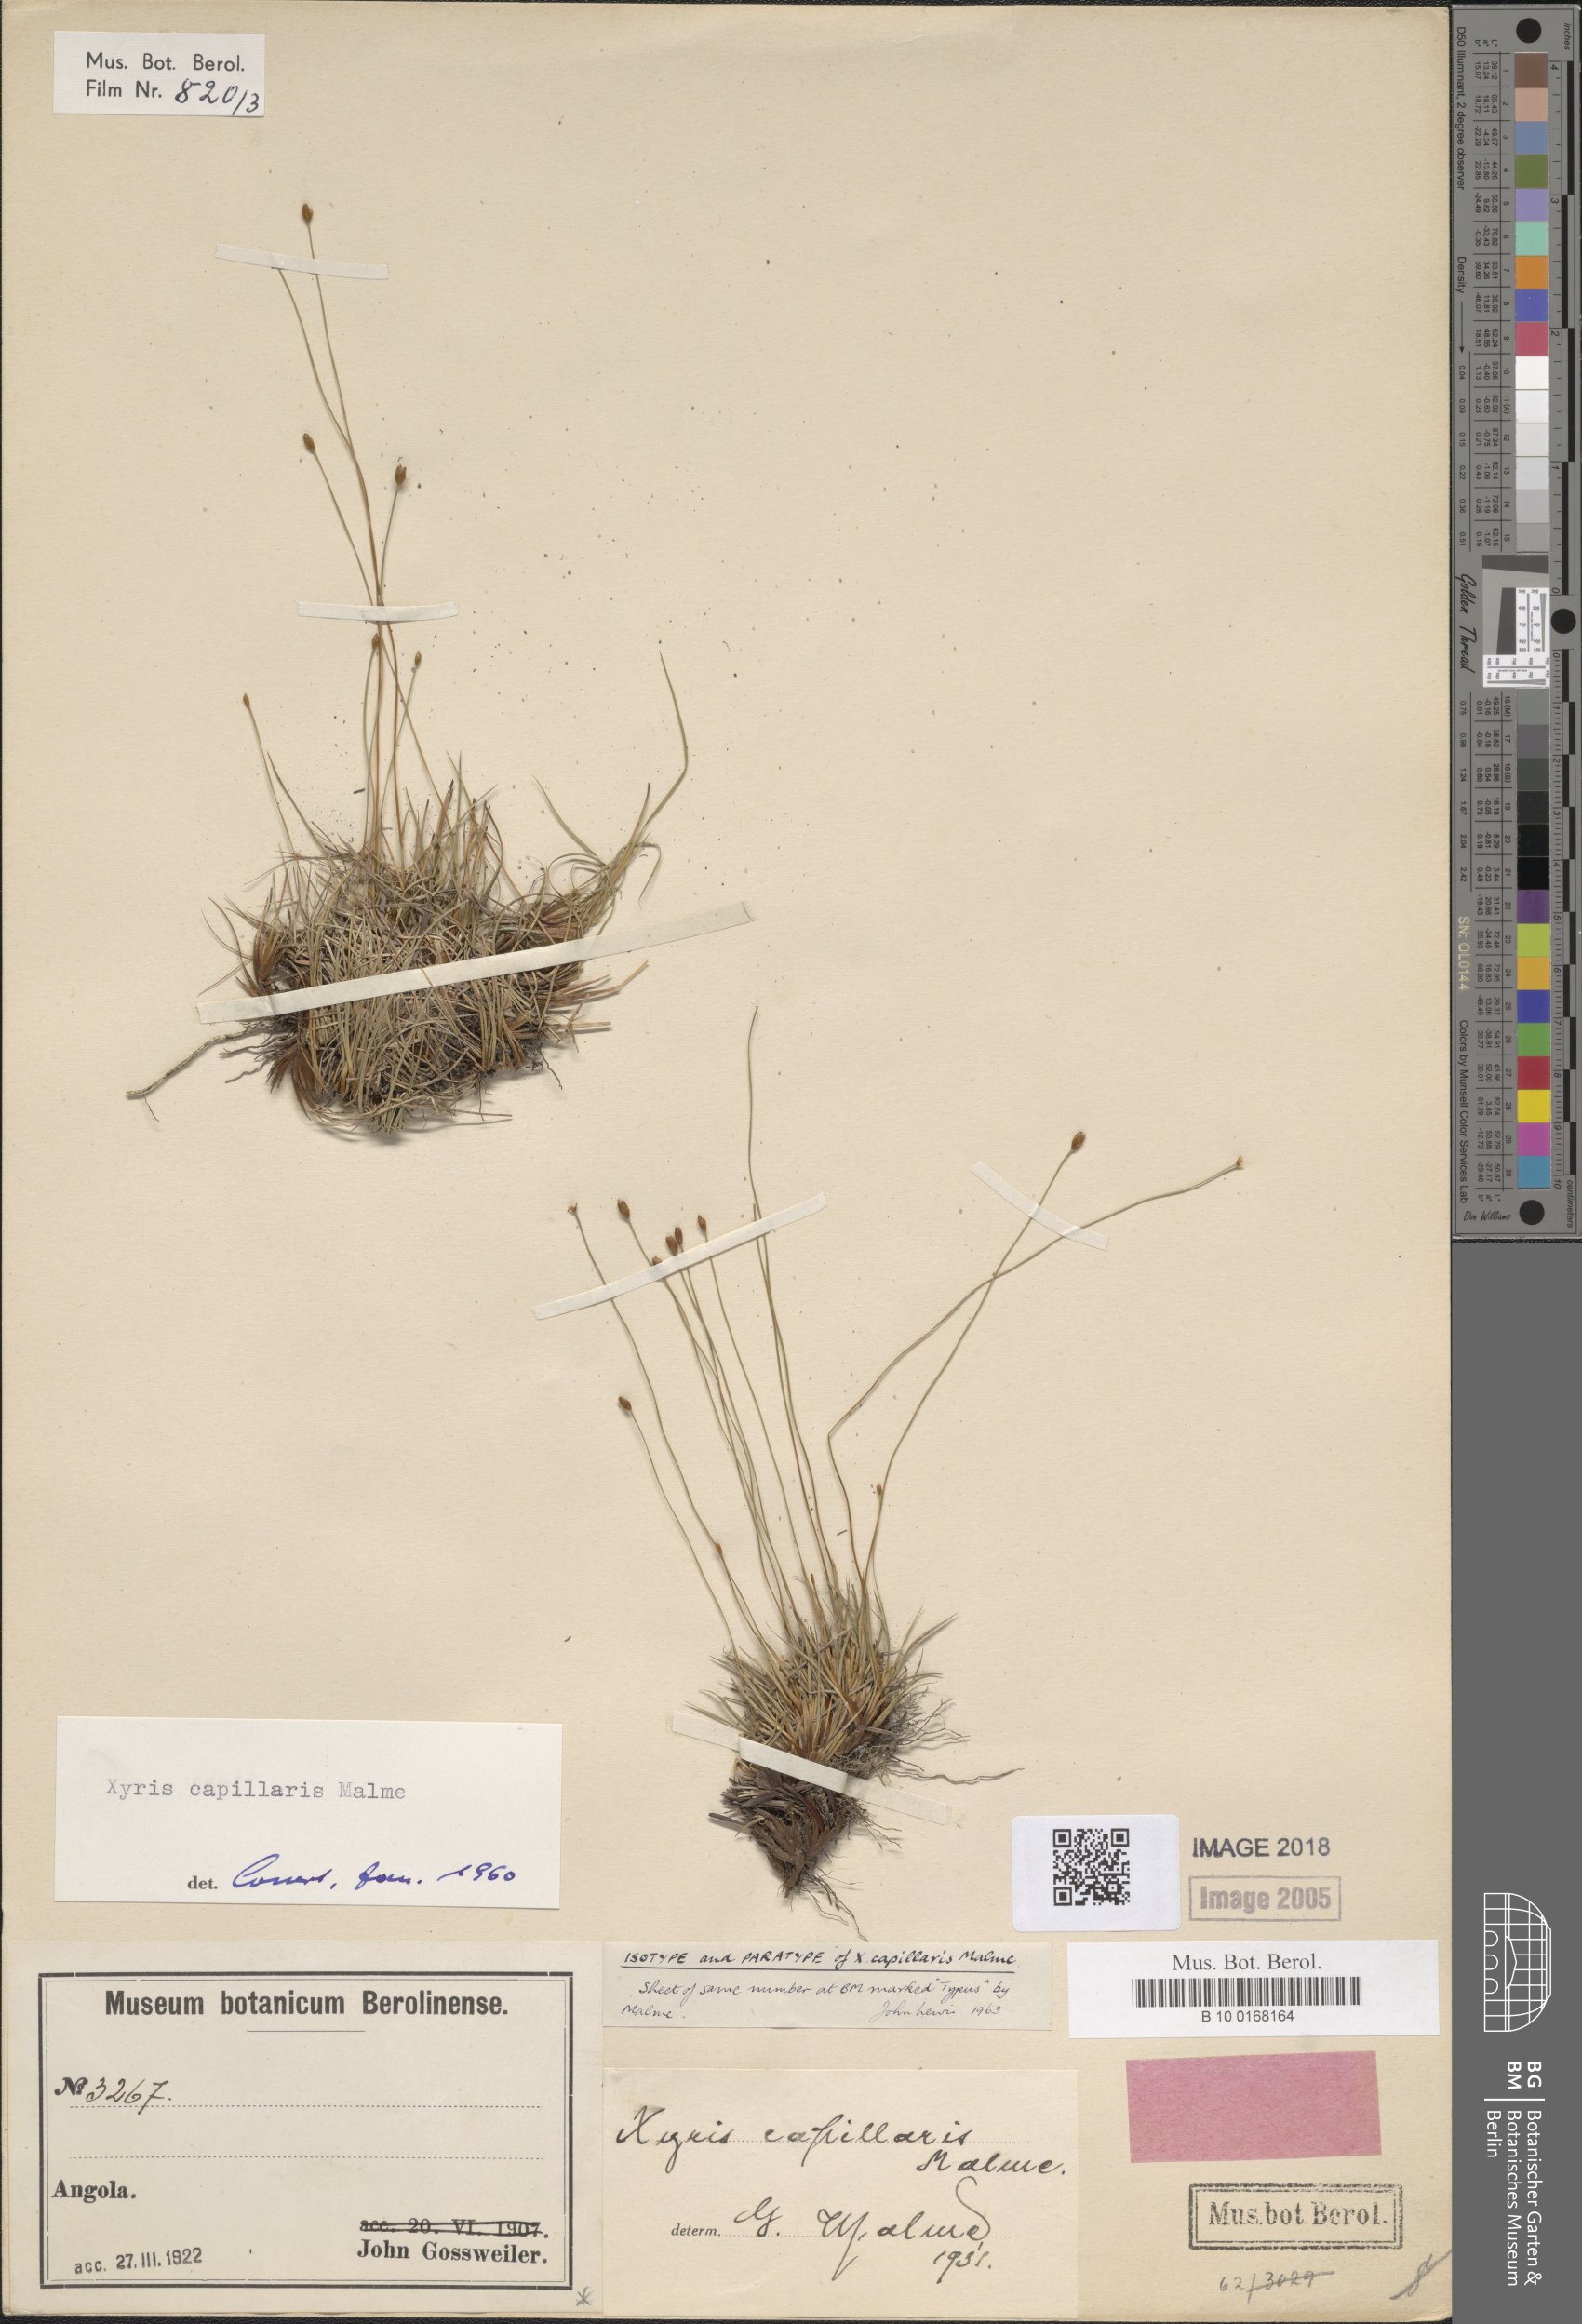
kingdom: Plantae
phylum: Tracheophyta
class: Liliopsida
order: Poales
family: Xyridaceae
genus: Xyris
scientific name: Xyris capillaris
